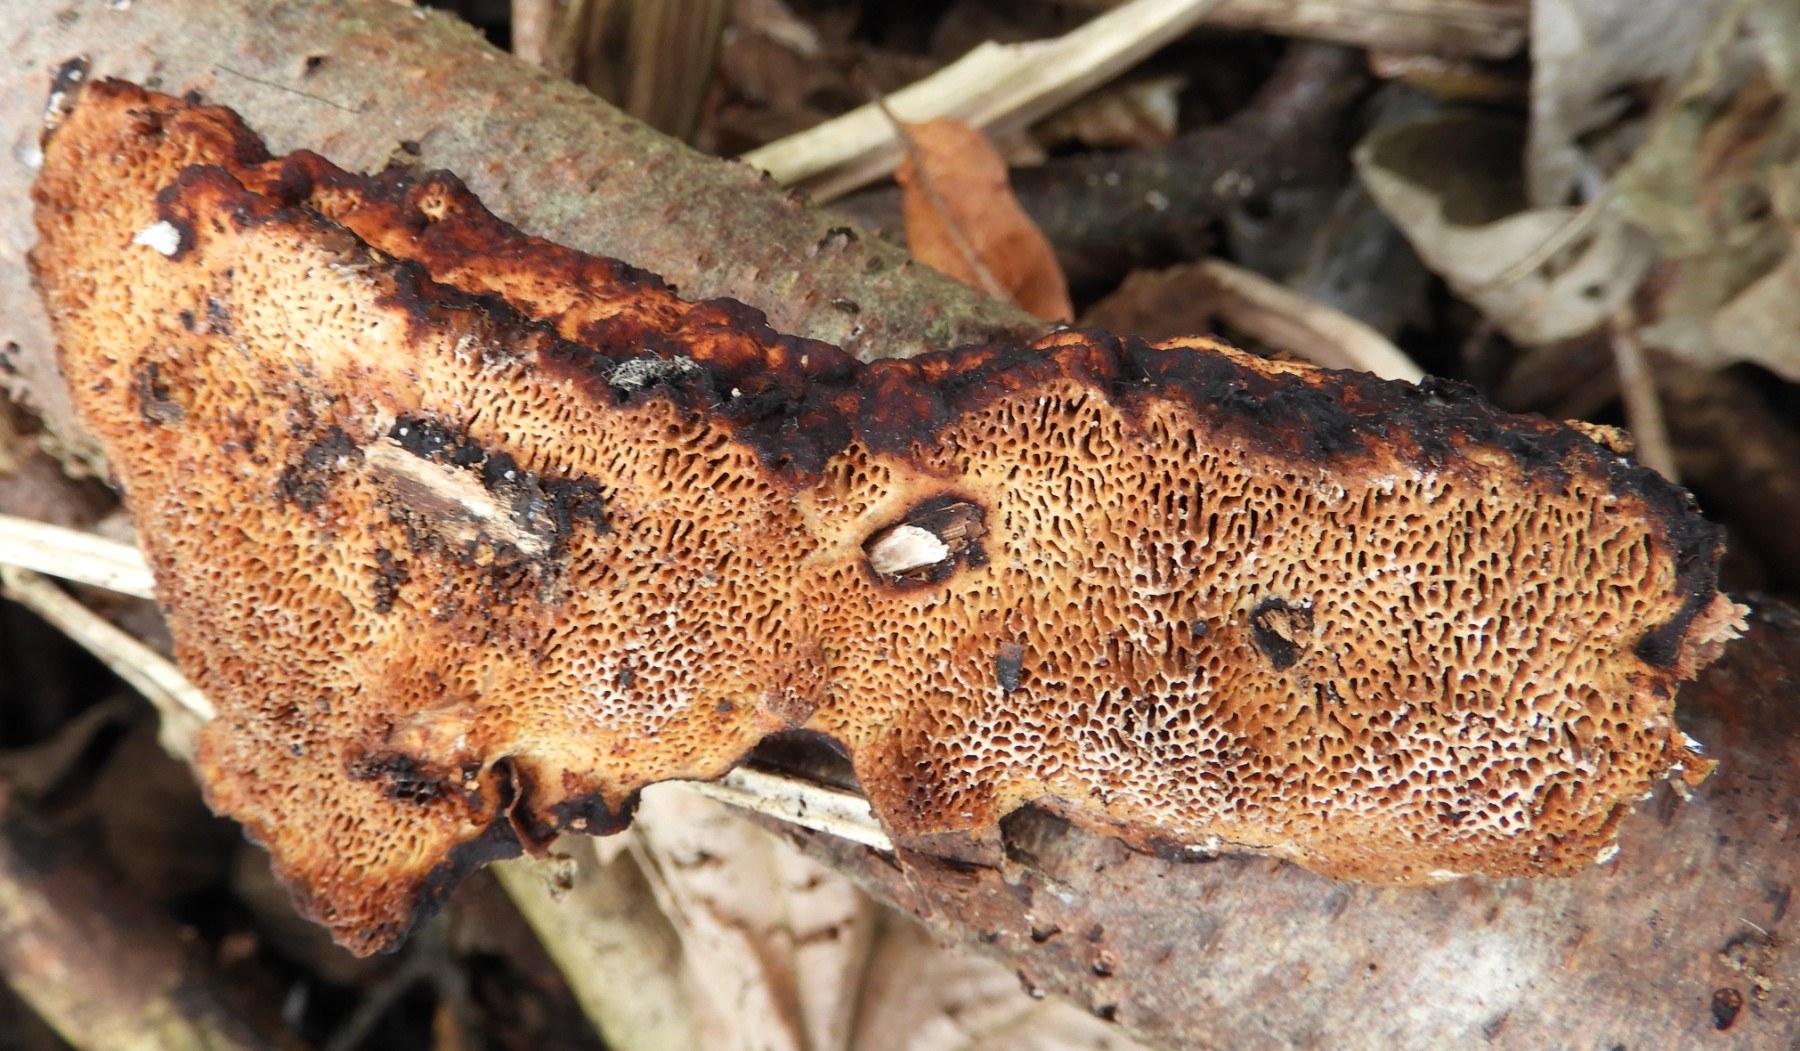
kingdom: Fungi
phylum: Basidiomycota
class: Agaricomycetes
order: Polyporales
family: Polyporaceae
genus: Daedaleopsis
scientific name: Daedaleopsis confragosa
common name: rødmende læderporesvamp
